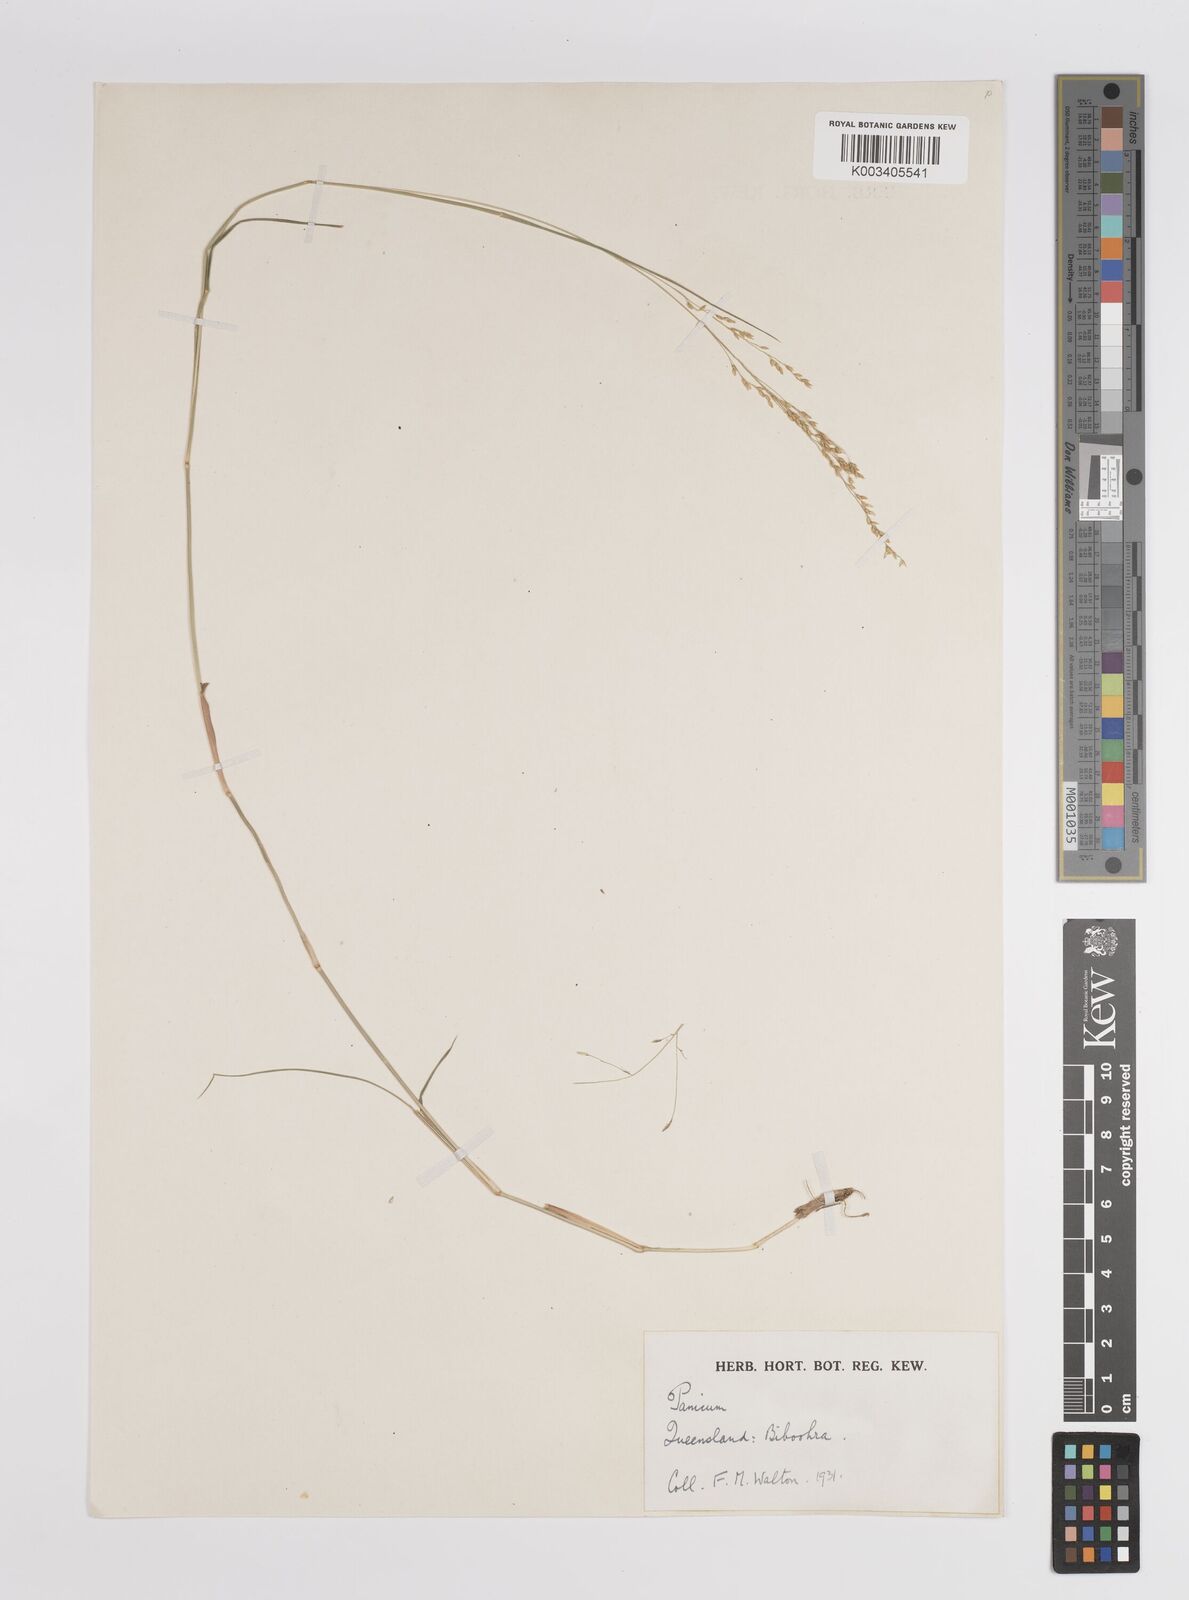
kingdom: Plantae
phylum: Tracheophyta
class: Liliopsida
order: Poales
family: Poaceae
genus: Panicum
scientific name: Panicum
